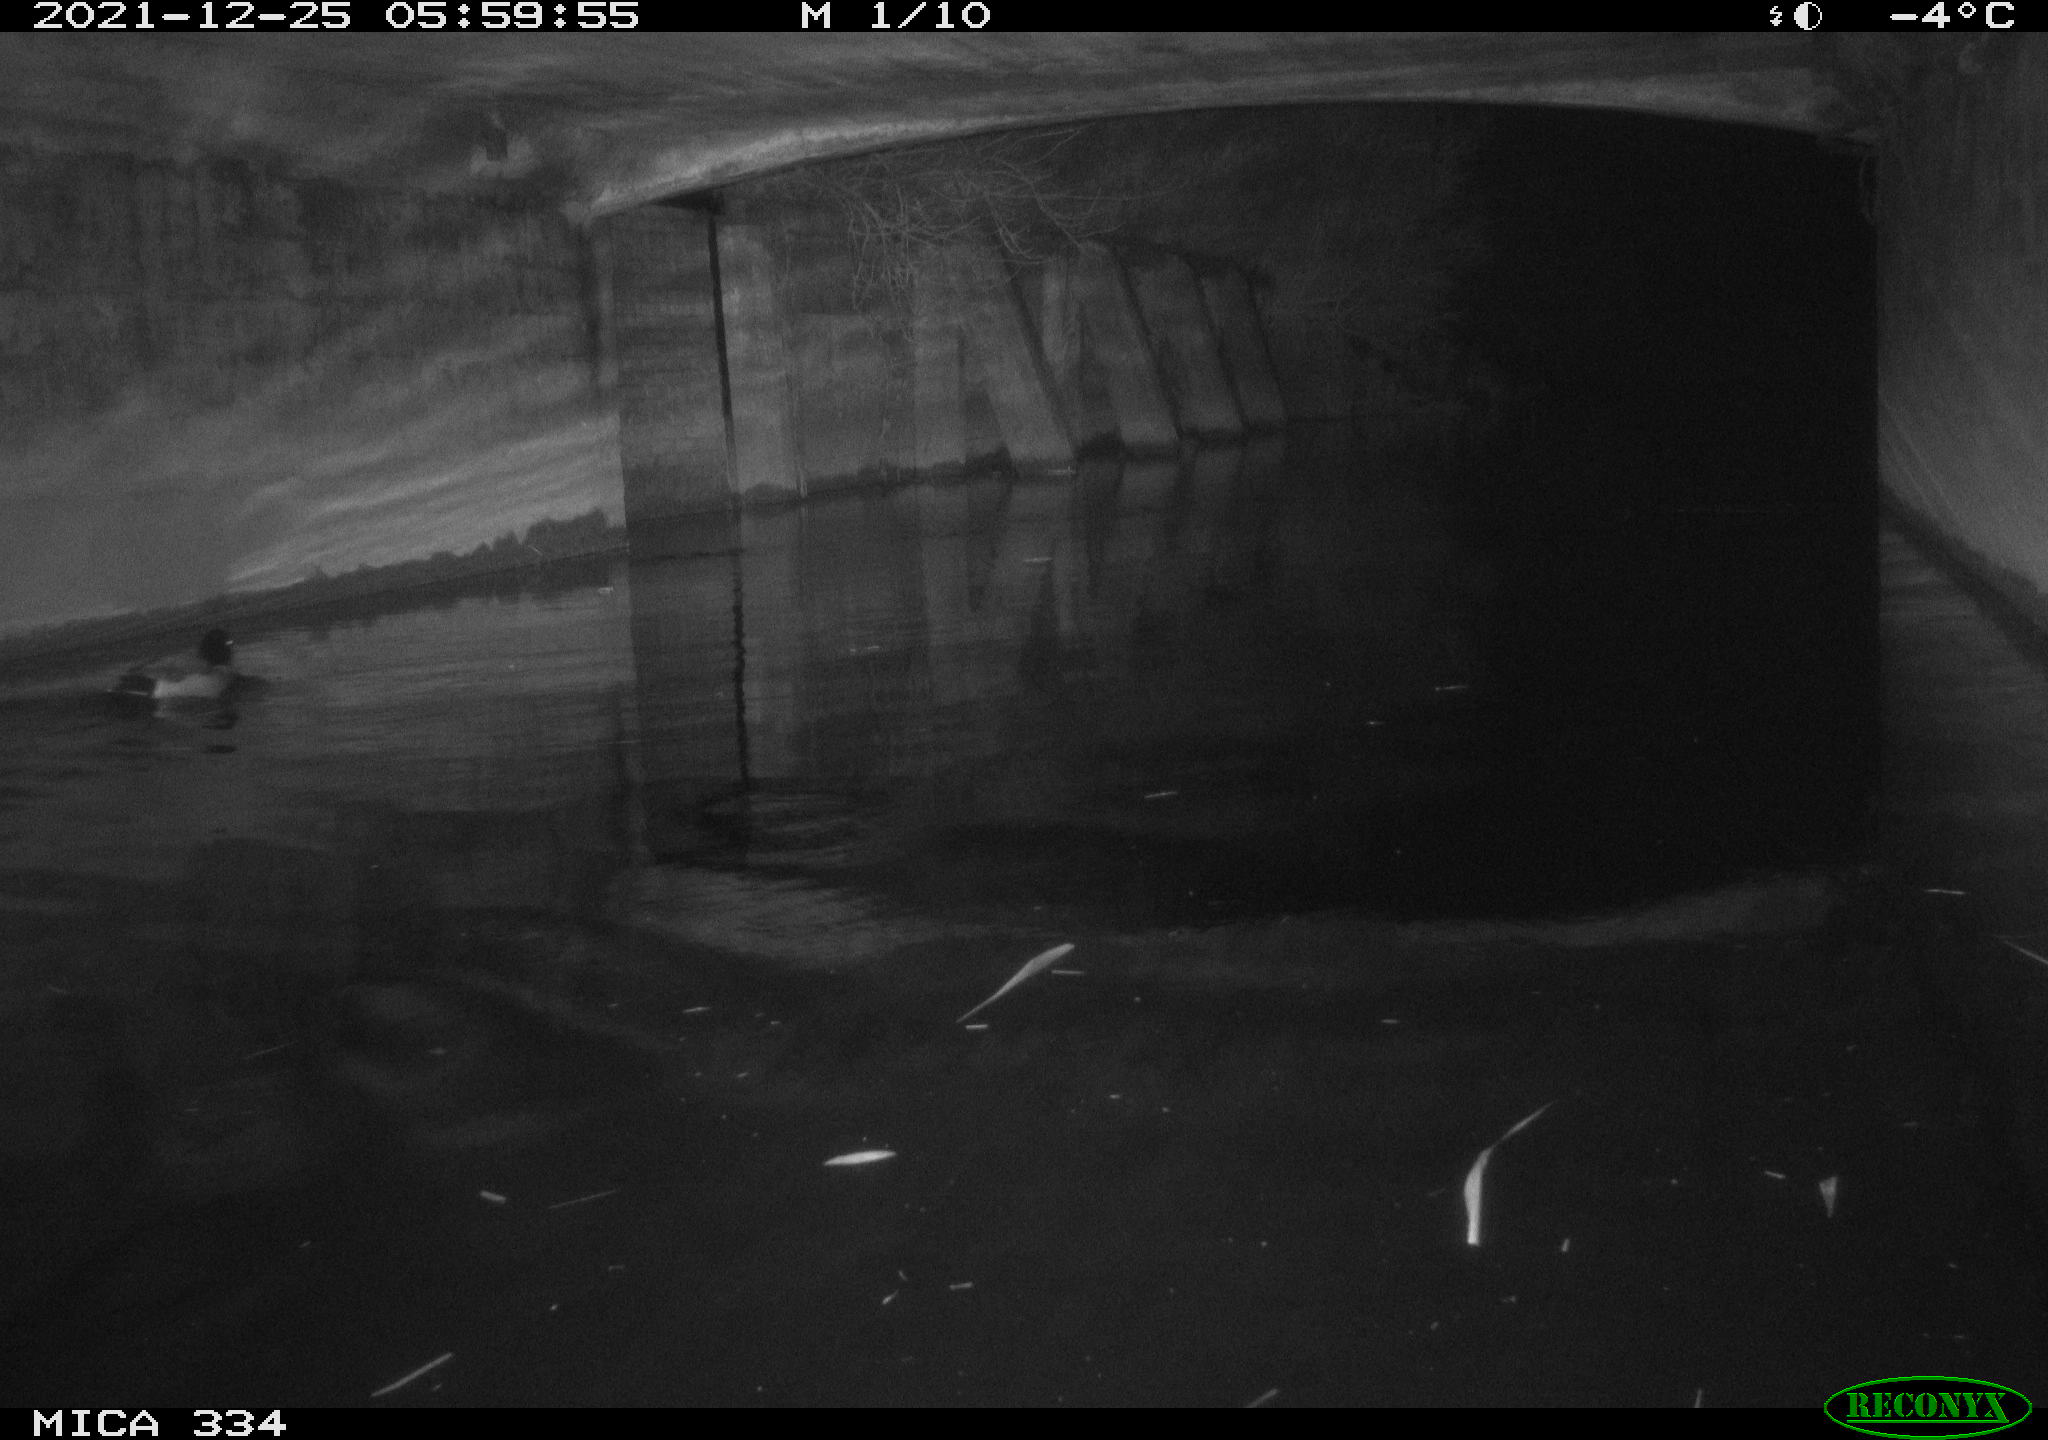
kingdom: Animalia
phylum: Chordata
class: Aves
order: Anseriformes
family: Anatidae
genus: Anas
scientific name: Anas platyrhynchos
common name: Mallard
